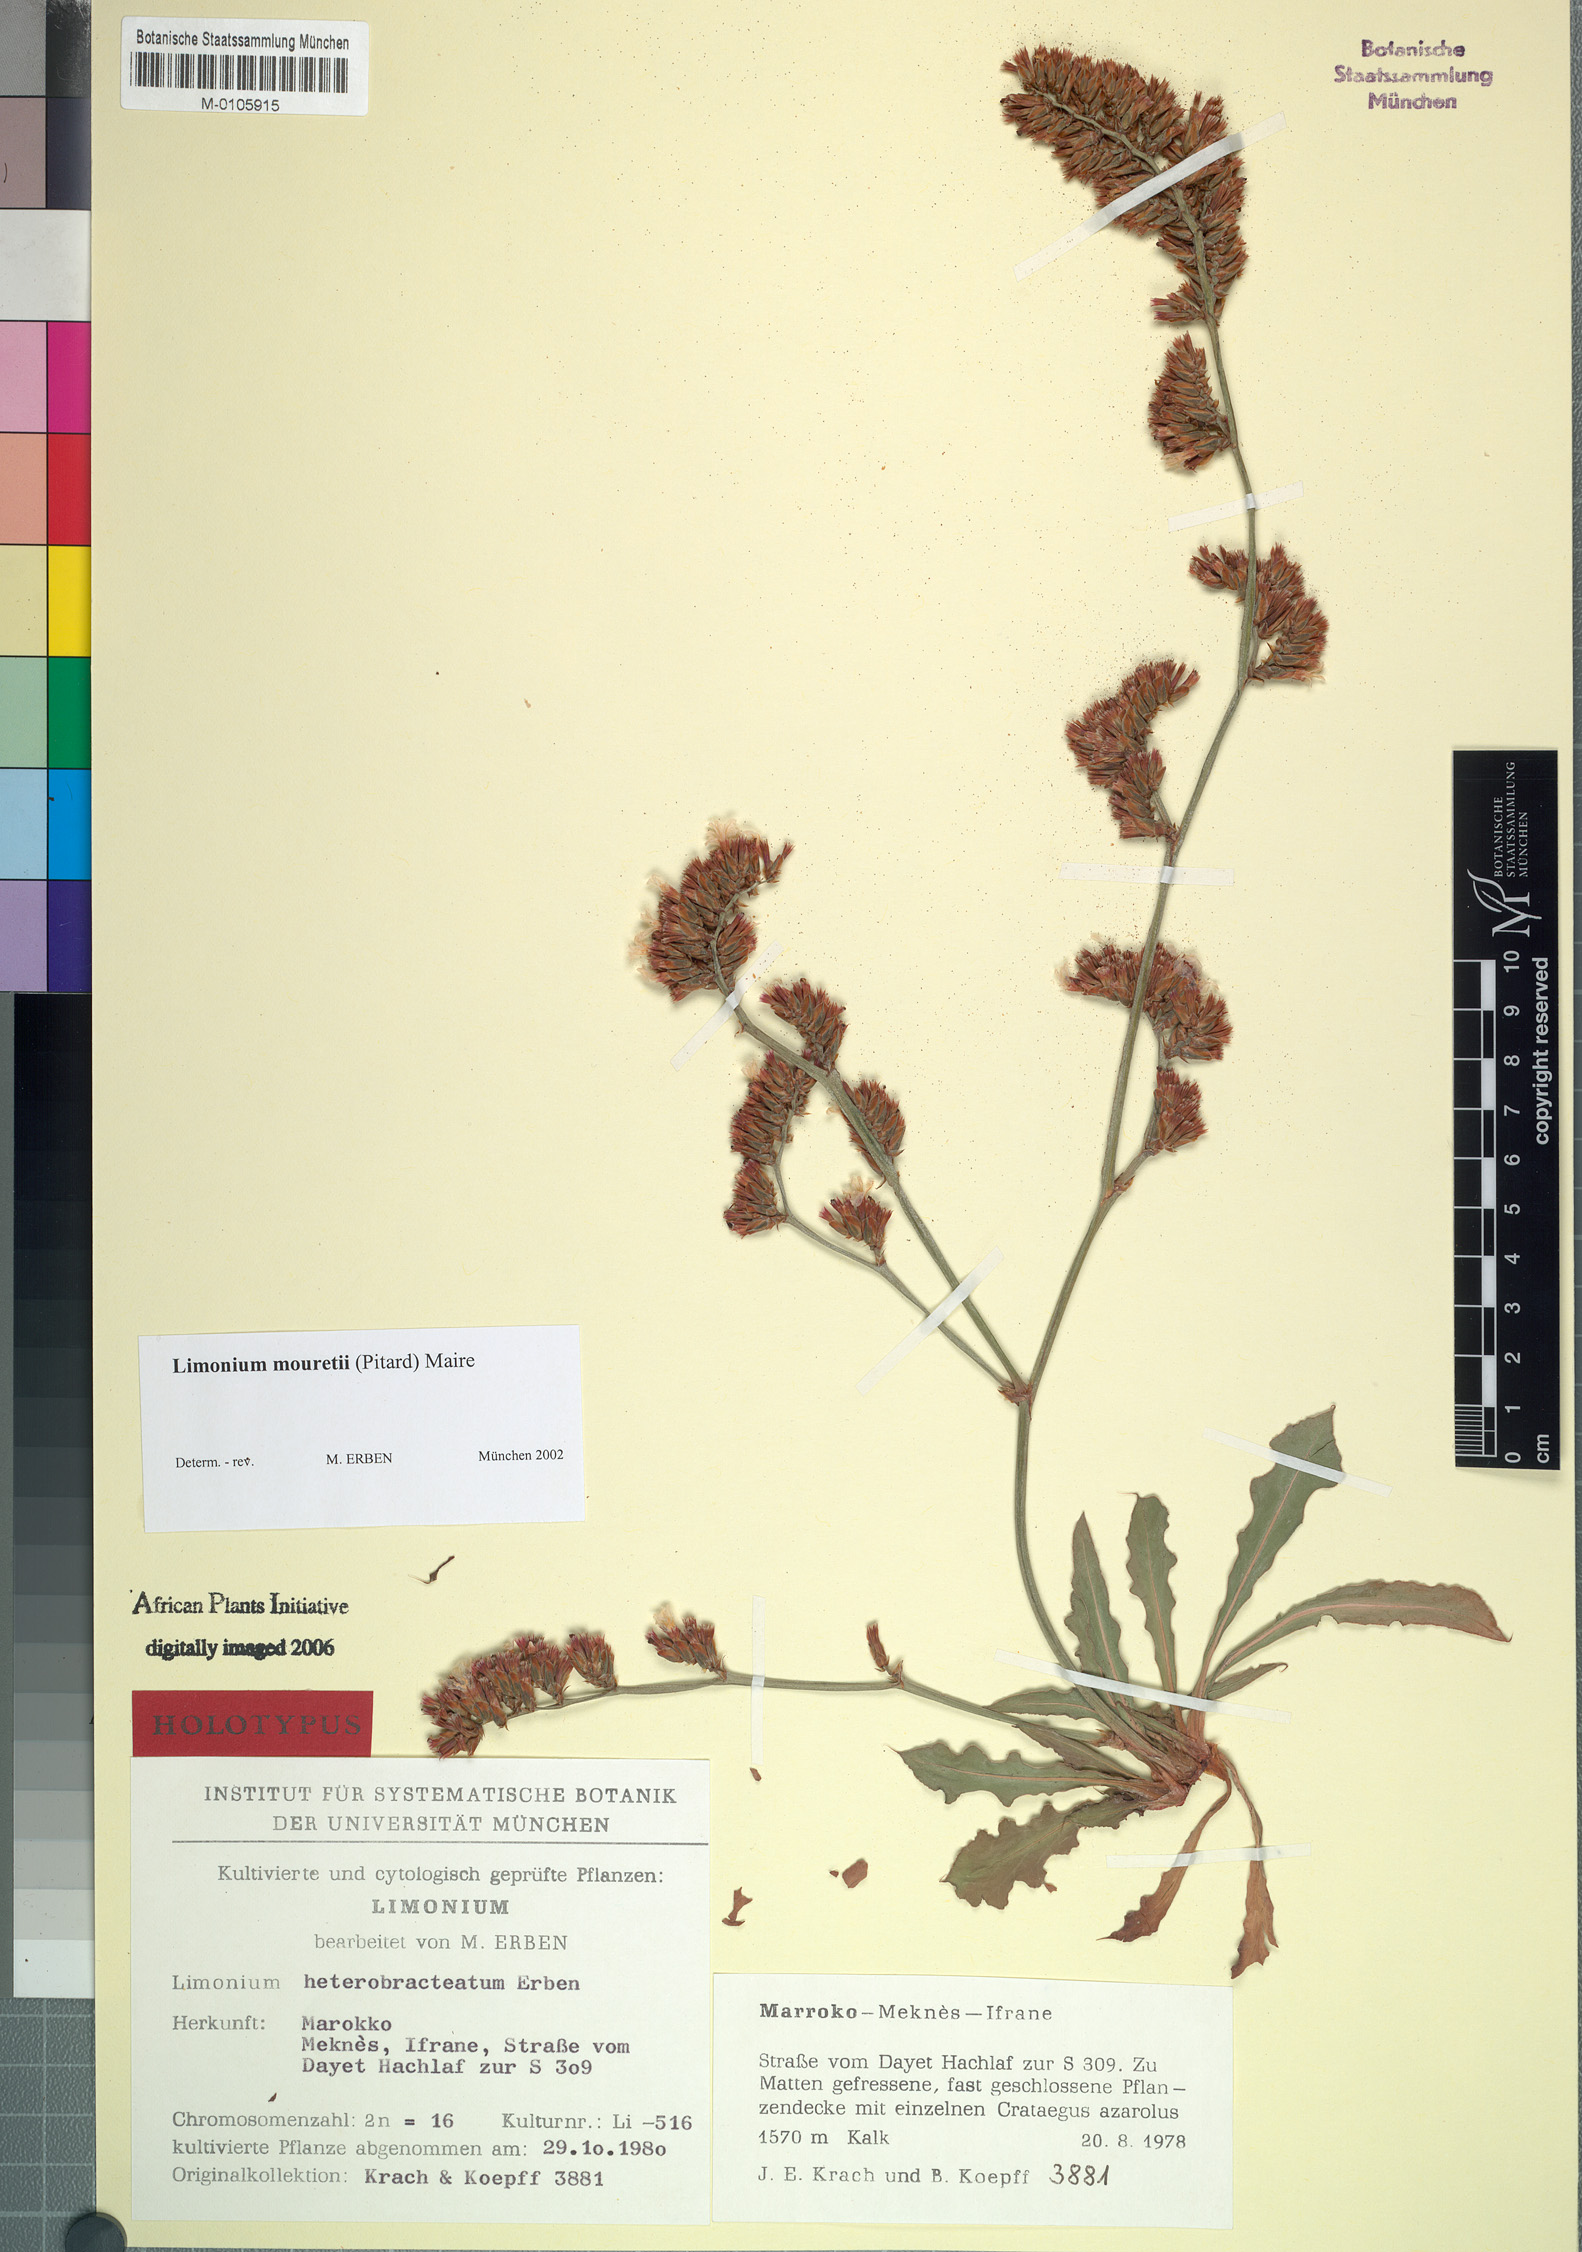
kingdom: Plantae
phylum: Tracheophyta
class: Magnoliopsida
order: Caryophyllales
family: Plumbaginaceae
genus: Limonium
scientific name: Limonium mouretii
